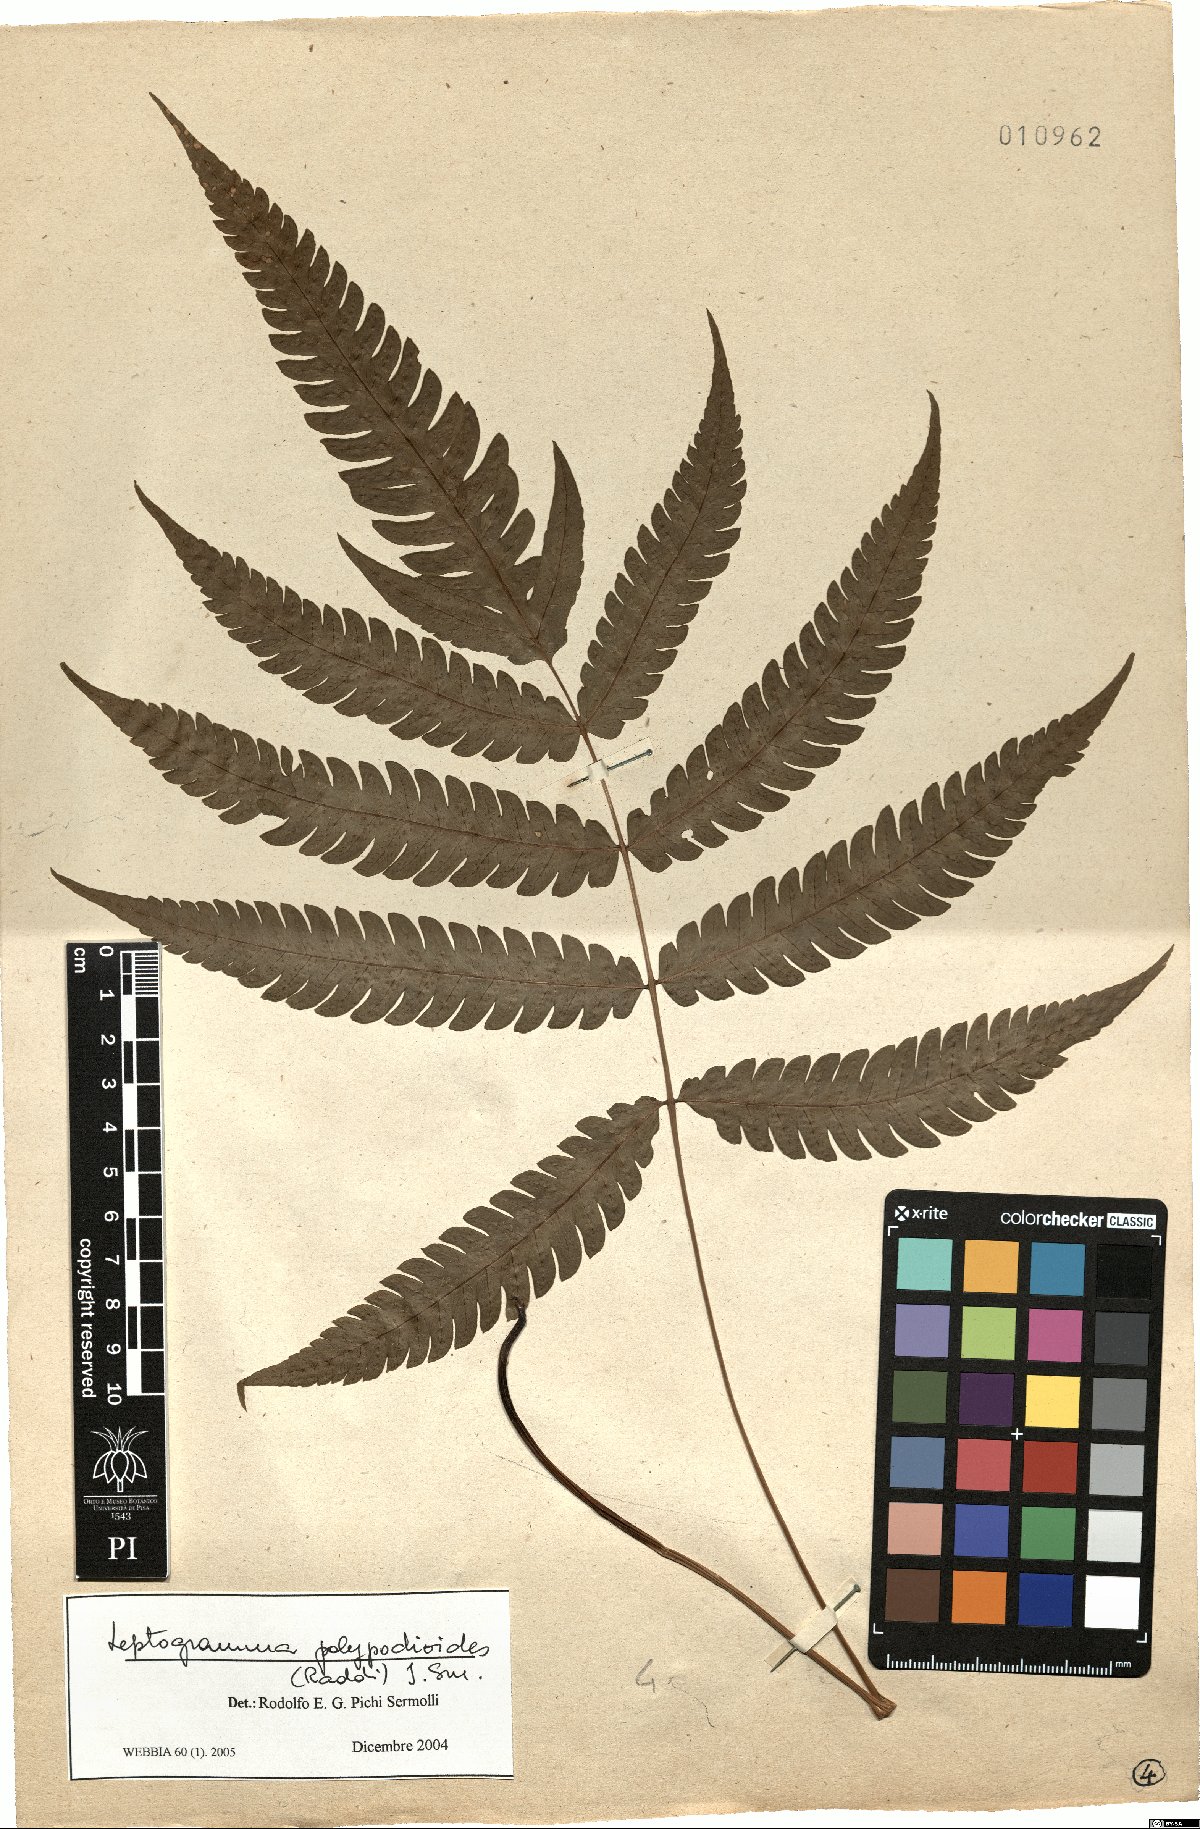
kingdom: Plantae
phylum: Tracheophyta
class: Polypodiopsida
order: Polypodiales
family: Thelypteridaceae
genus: Steiropteris
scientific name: Steiropteris polypodioides
